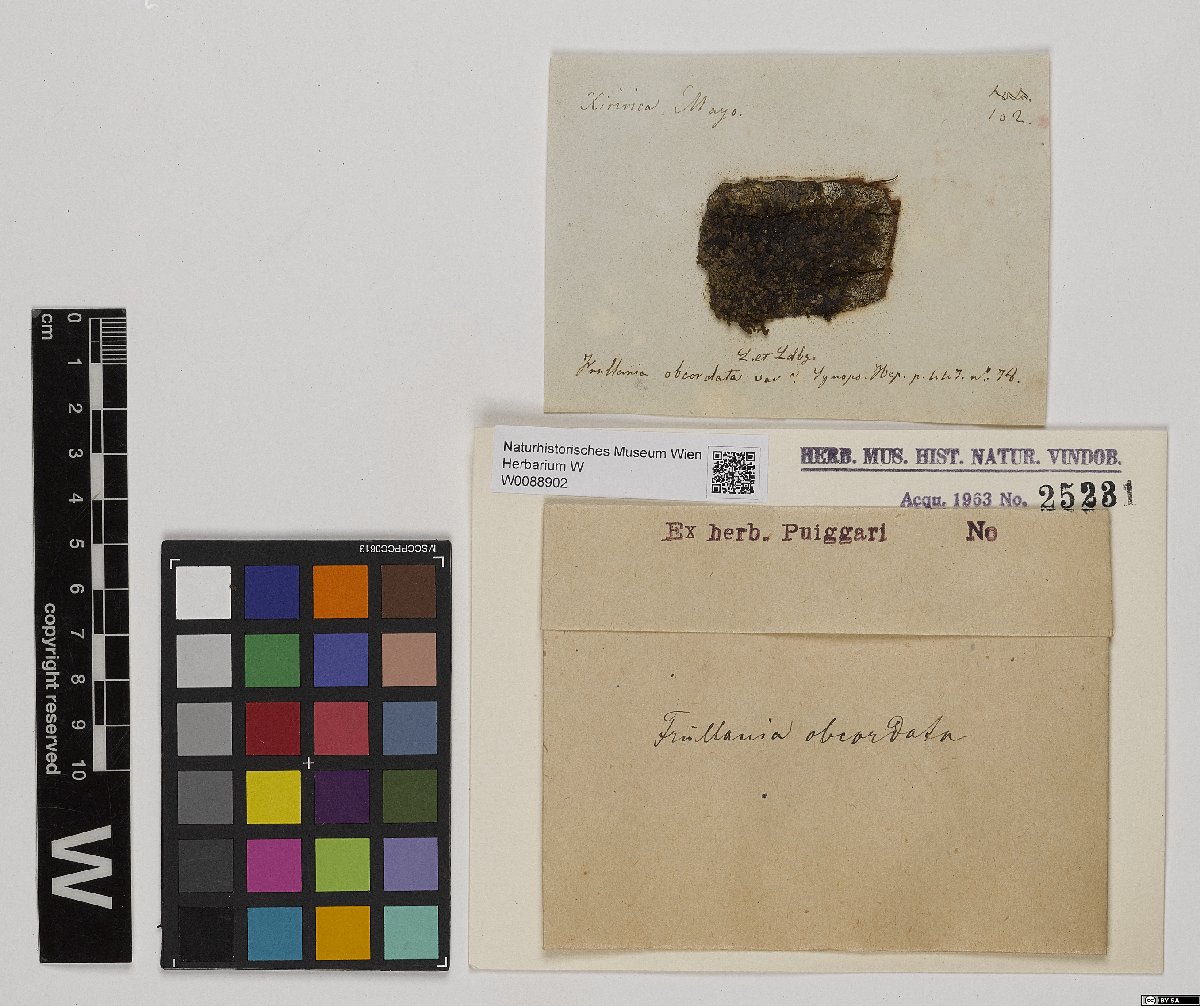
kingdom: Plantae
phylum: Marchantiophyta
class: Jungermanniopsida
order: Porellales
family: Frullaniaceae
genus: Frullania
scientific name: Frullania obcordata
